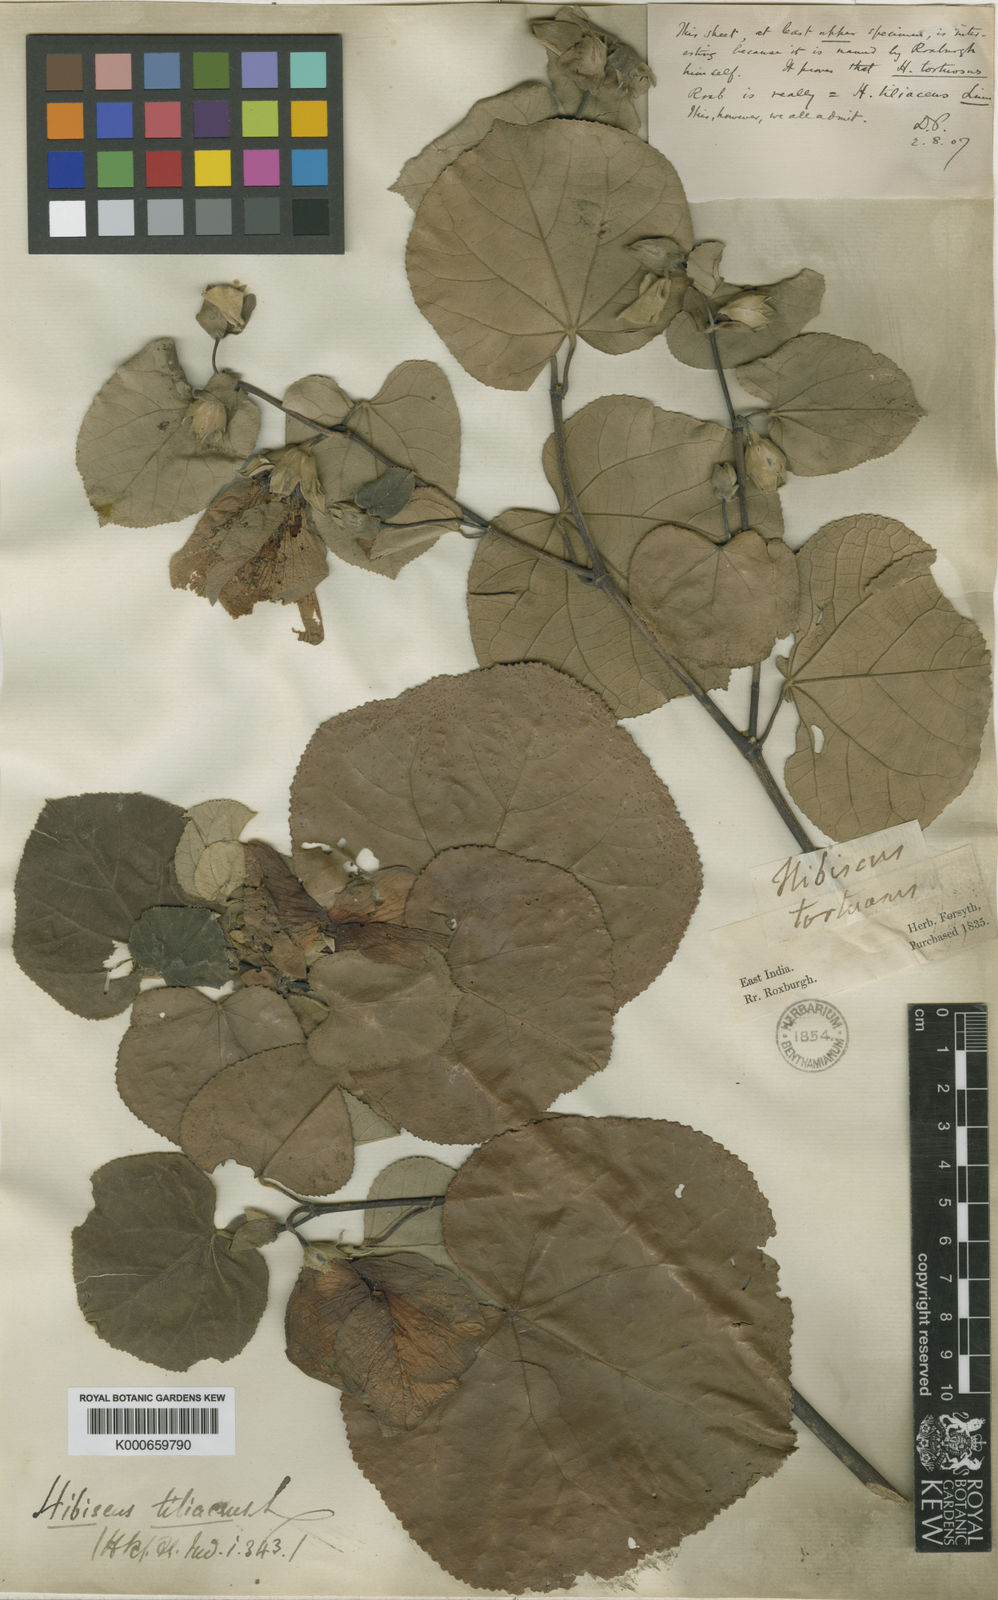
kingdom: Plantae
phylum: Tracheophyta
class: Magnoliopsida
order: Malvales
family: Malvaceae
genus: Talipariti
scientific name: Talipariti tiliaceum
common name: Sea hibiscus
